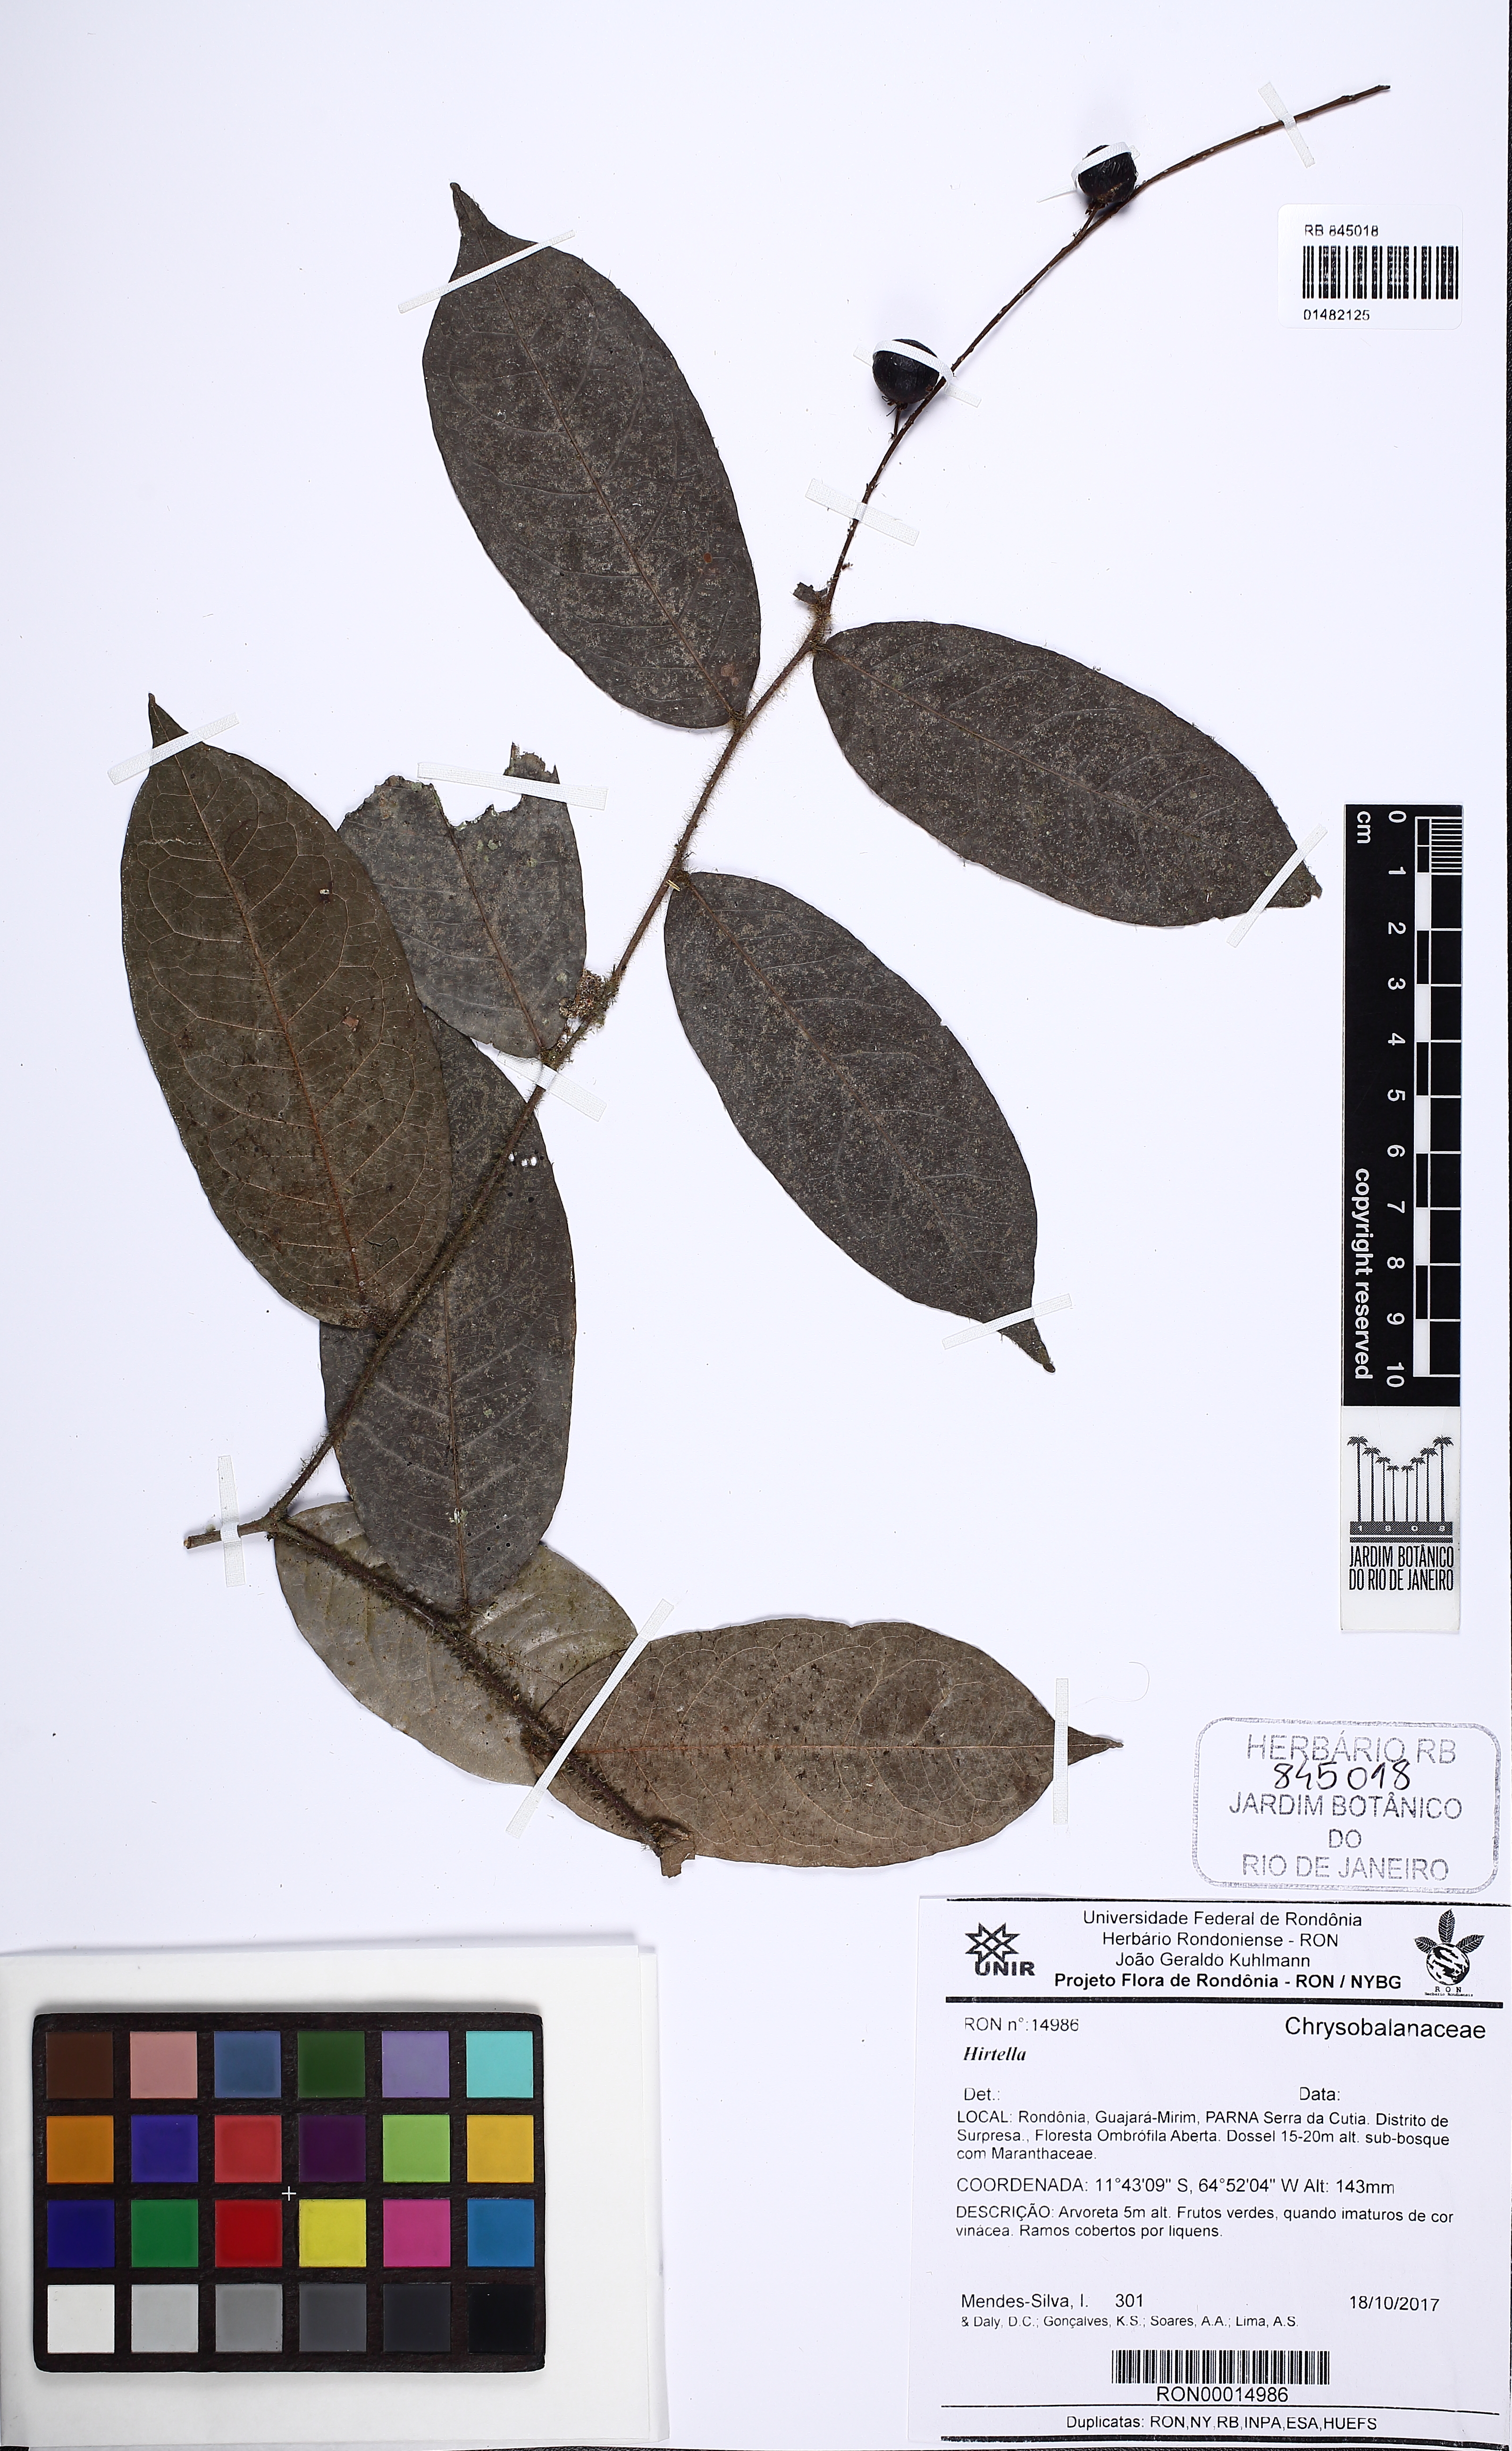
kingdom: Plantae
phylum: Tracheophyta
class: Magnoliopsida
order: Malpighiales
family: Chrysobalanaceae
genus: Hirtella
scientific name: Hirtella
